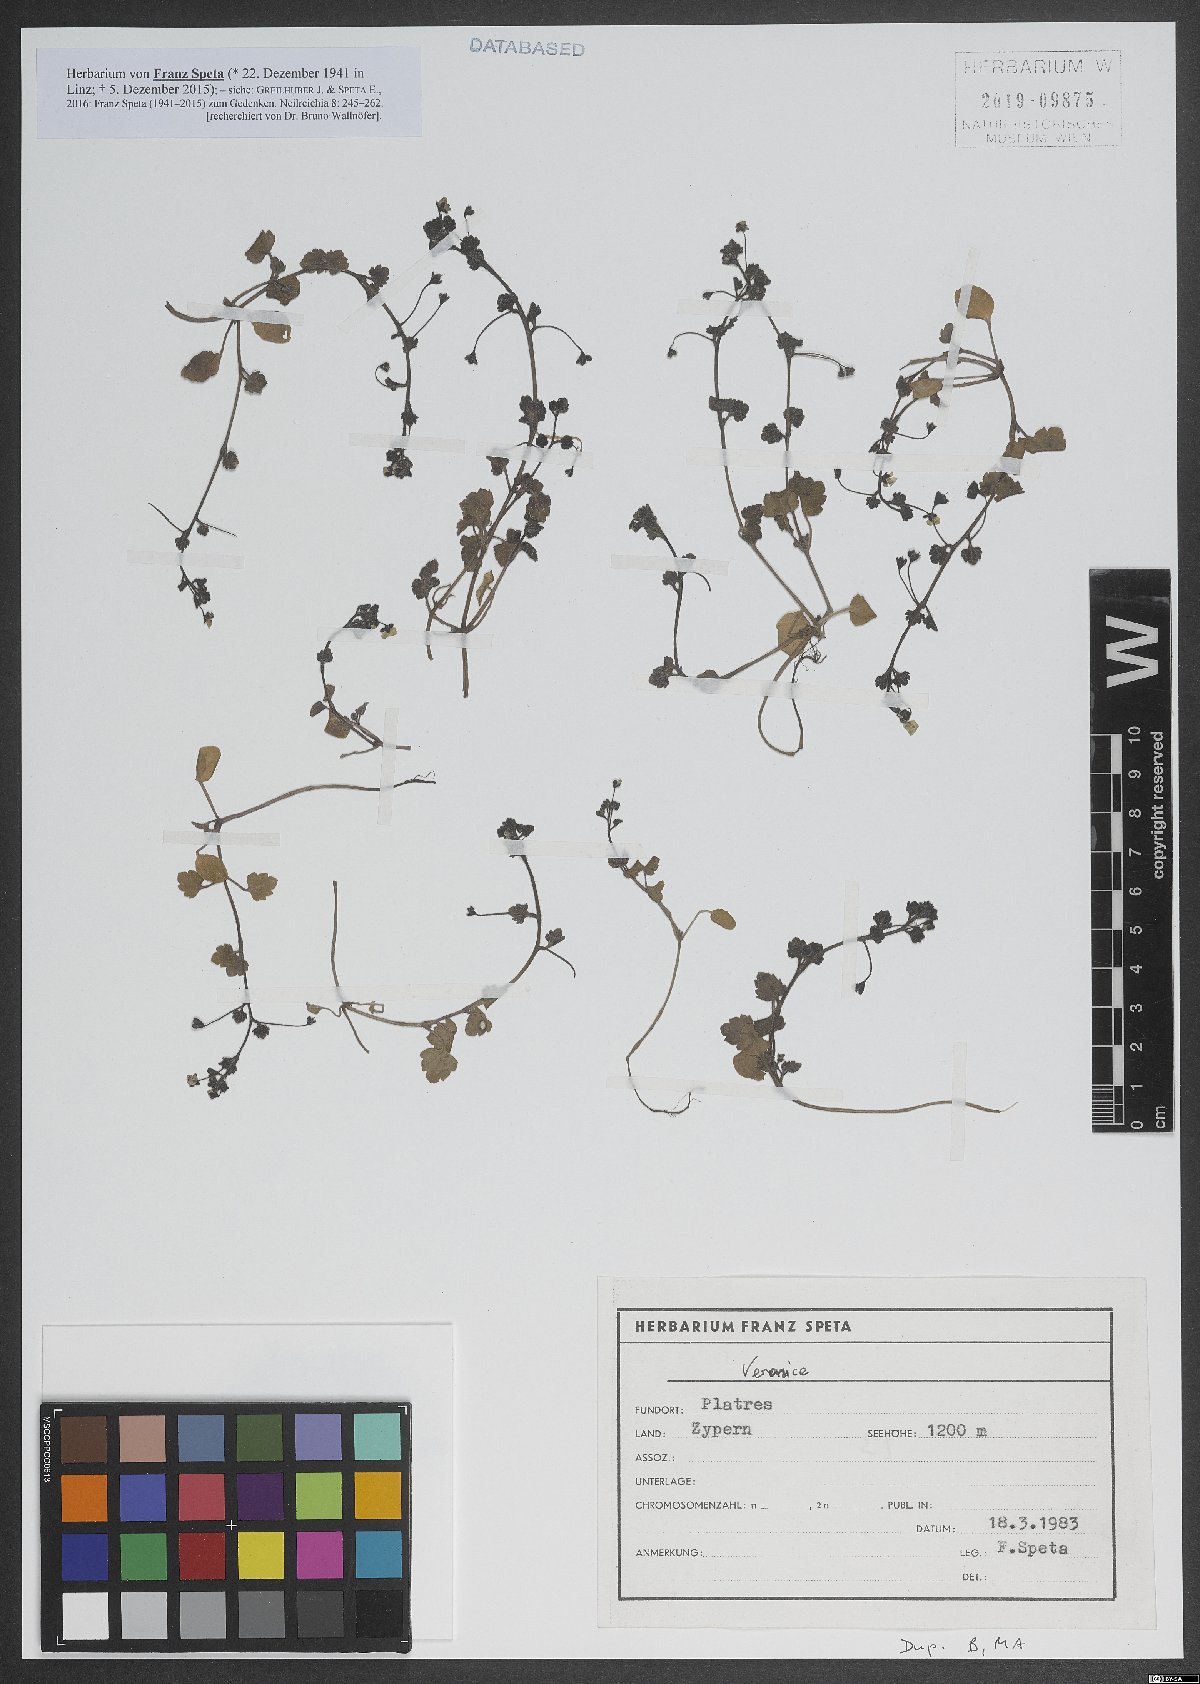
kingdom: Plantae
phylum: Tracheophyta
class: Magnoliopsida
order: Lamiales
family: Plantaginaceae
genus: Veronica
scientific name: Veronica
